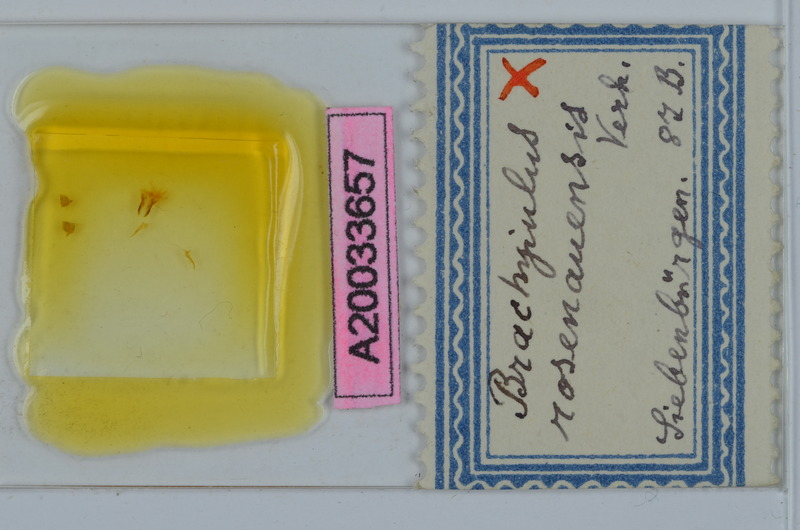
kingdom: Animalia
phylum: Arthropoda
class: Diplopoda
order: Julida
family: Julidae
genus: Megaphyllum
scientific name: Megaphyllum rosenauense
